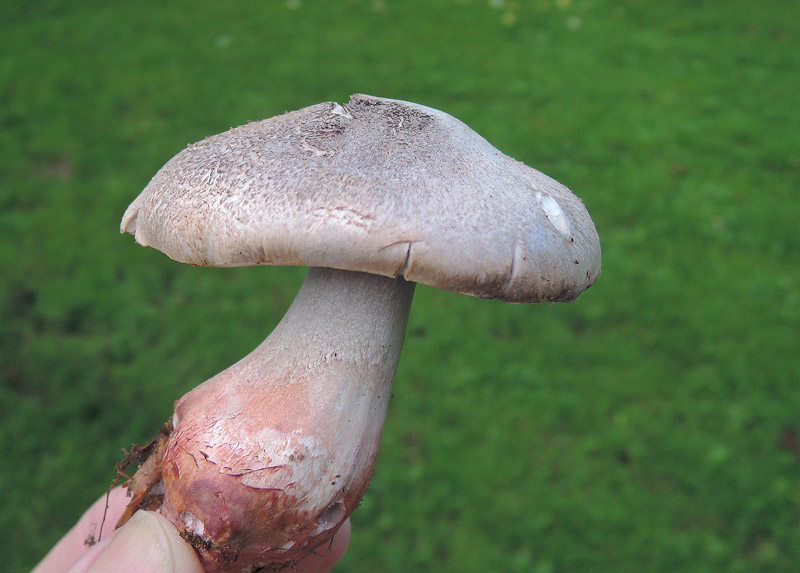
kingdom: Fungi
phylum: Basidiomycota
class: Agaricomycetes
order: Agaricales
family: Tricholomataceae
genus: Tricholoma
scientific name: Tricholoma basirubens
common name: rødfodet ridderhat
